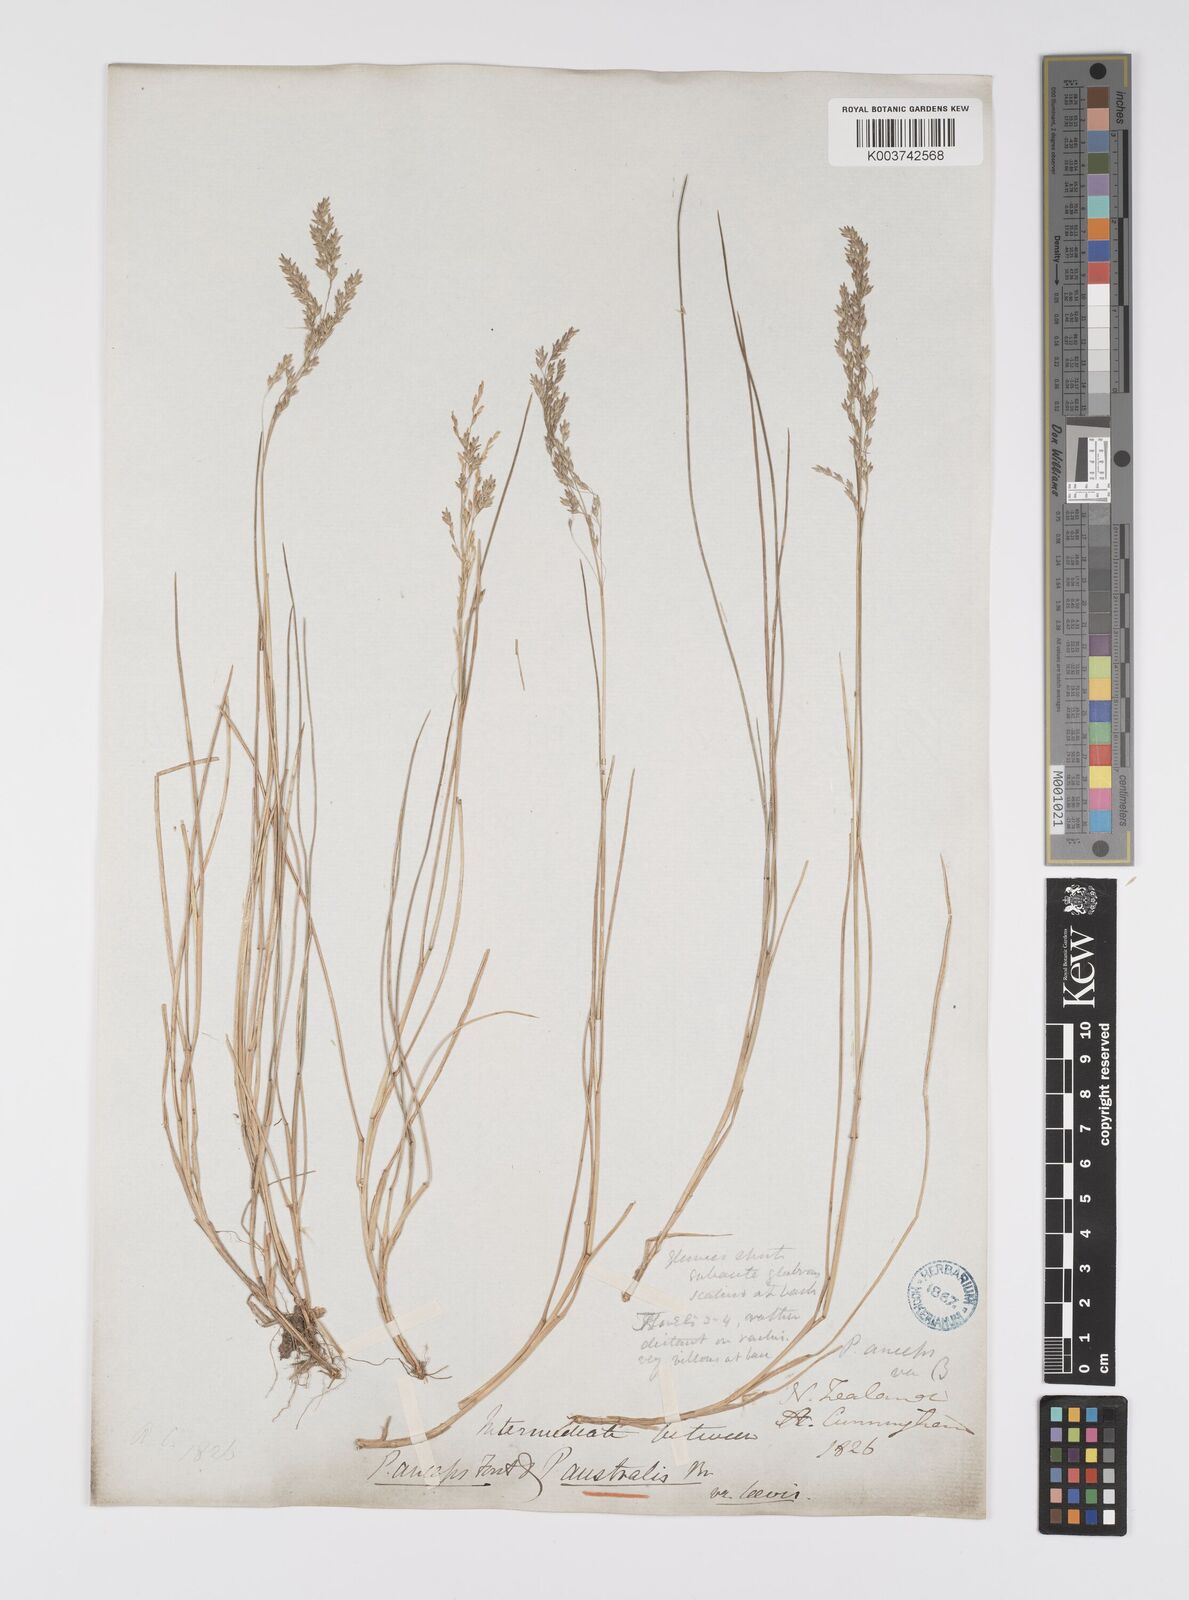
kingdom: Plantae
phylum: Tracheophyta
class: Liliopsida
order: Poales
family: Poaceae
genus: Poa
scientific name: Poa anceps
